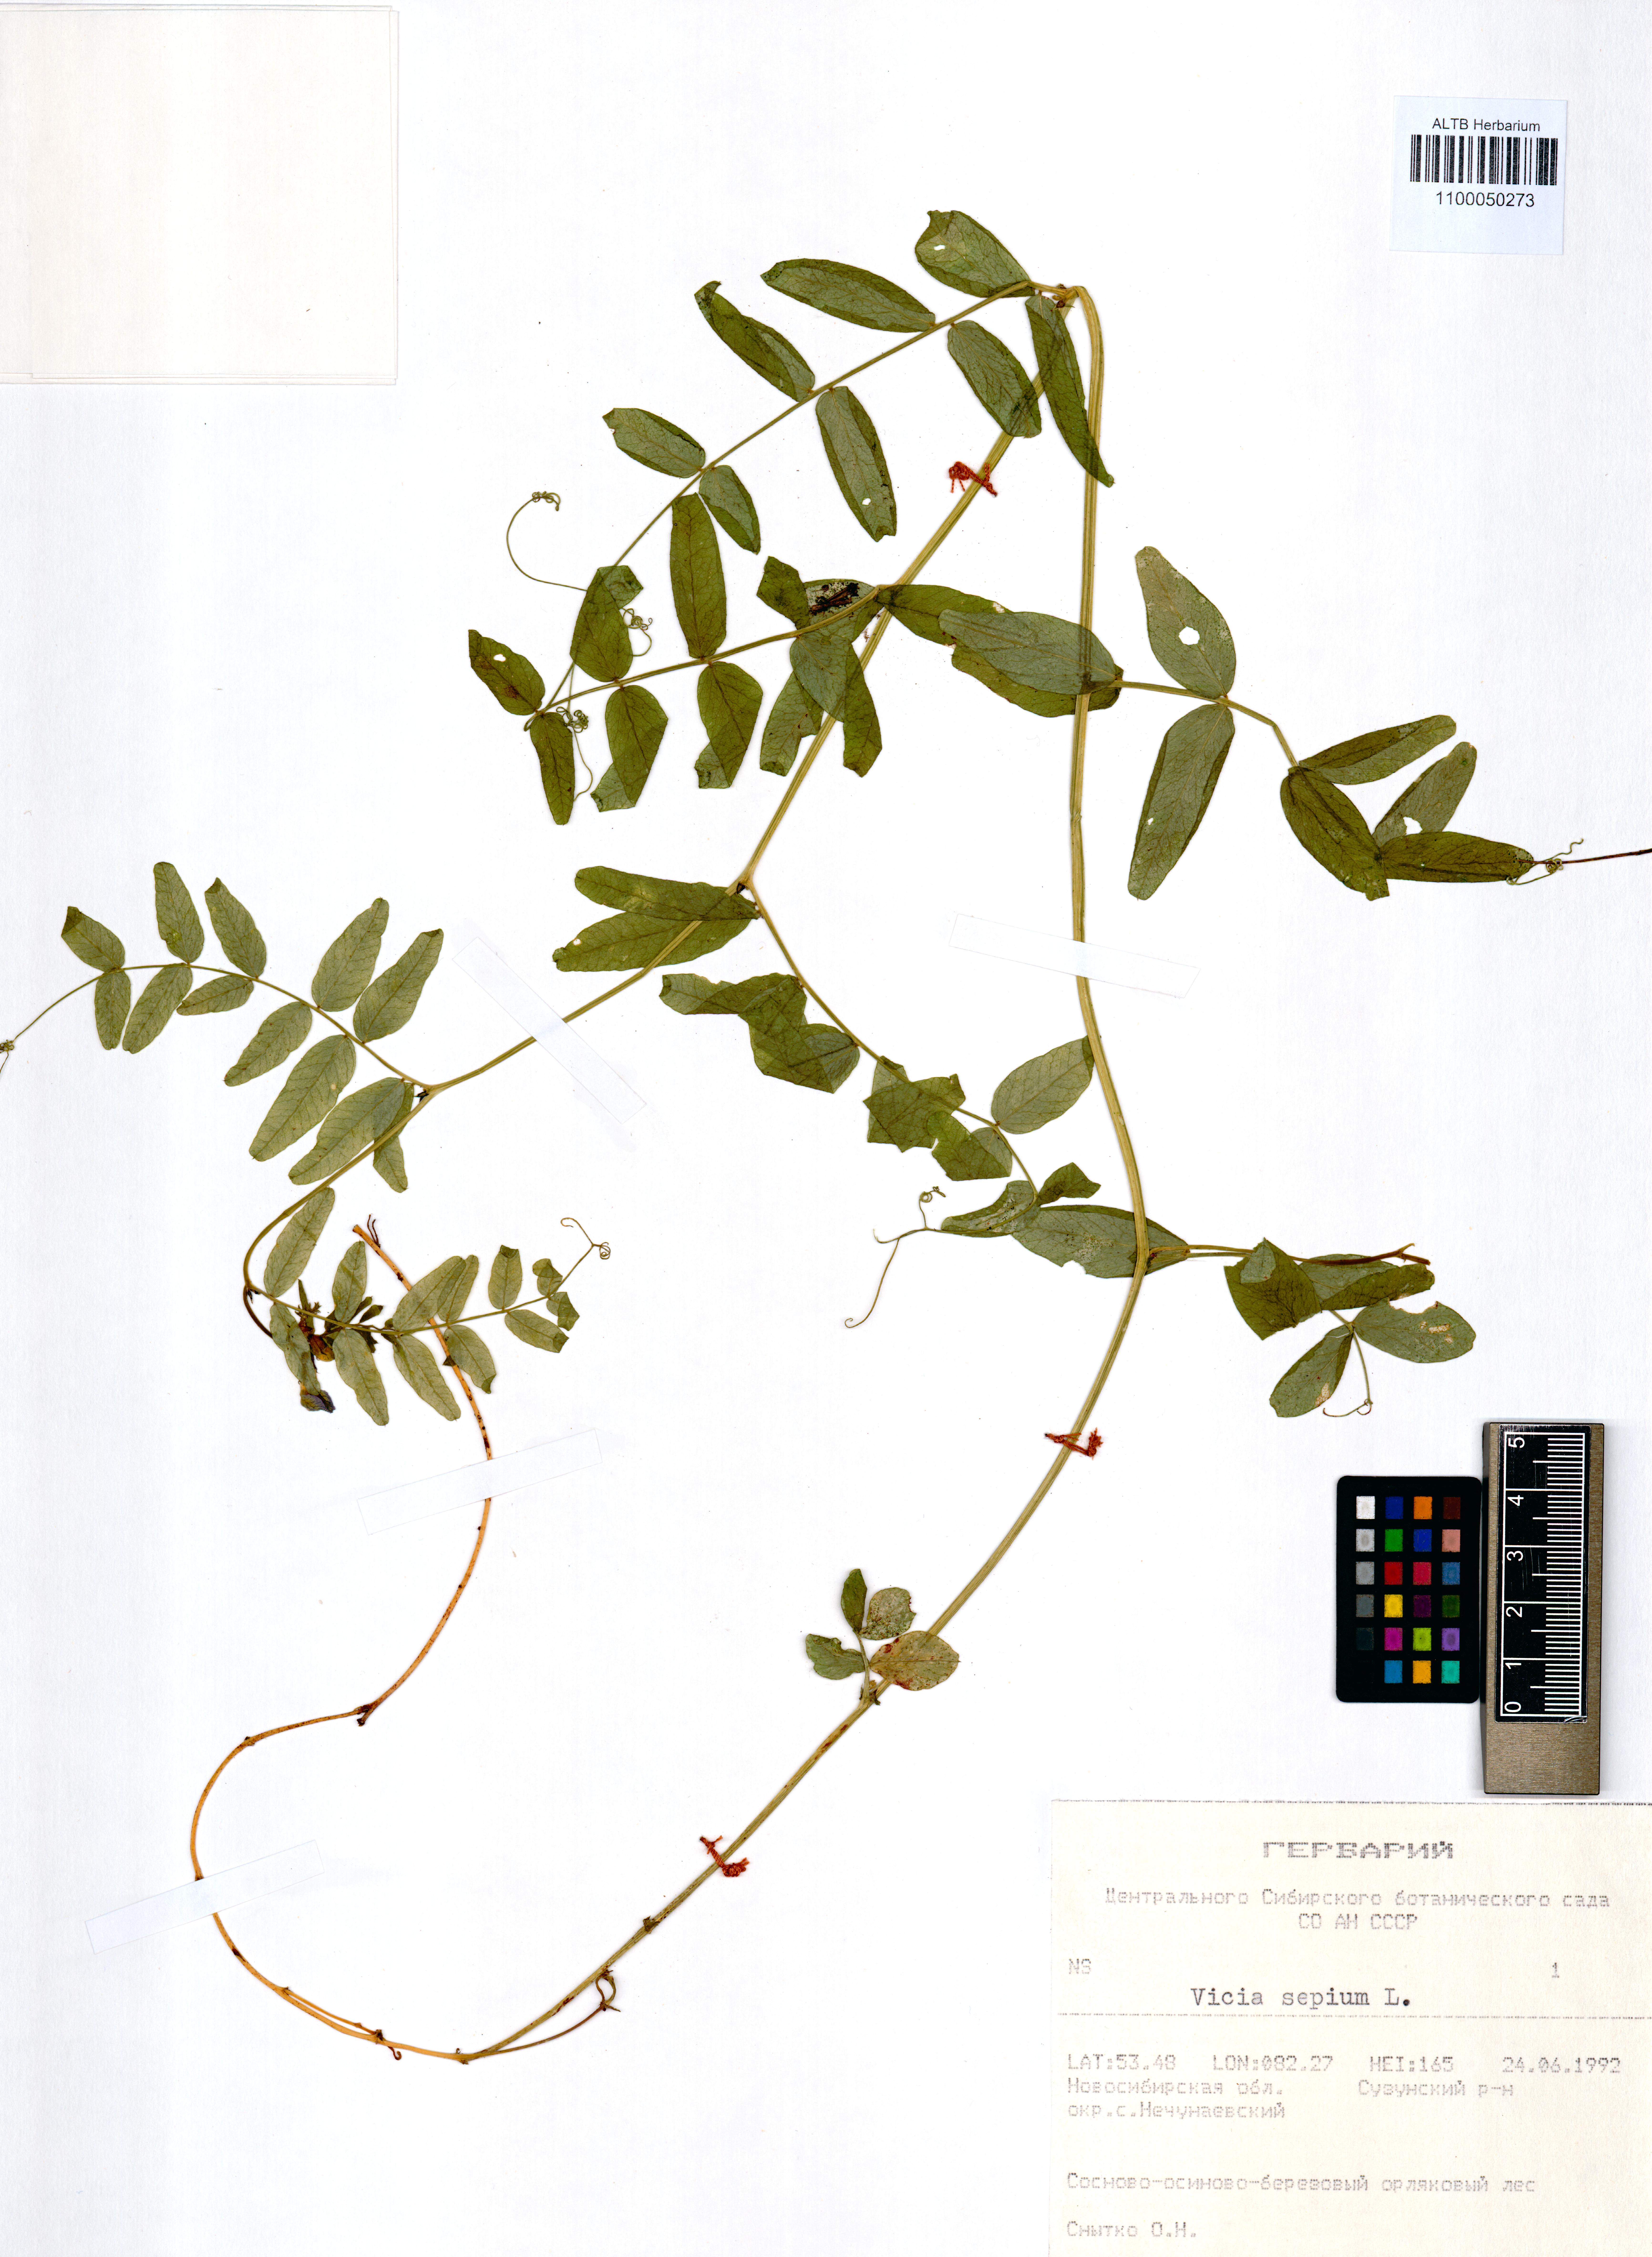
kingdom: Plantae
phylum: Tracheophyta
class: Magnoliopsida
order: Fabales
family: Fabaceae
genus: Vicia
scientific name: Vicia sepium
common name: Bush vetch
